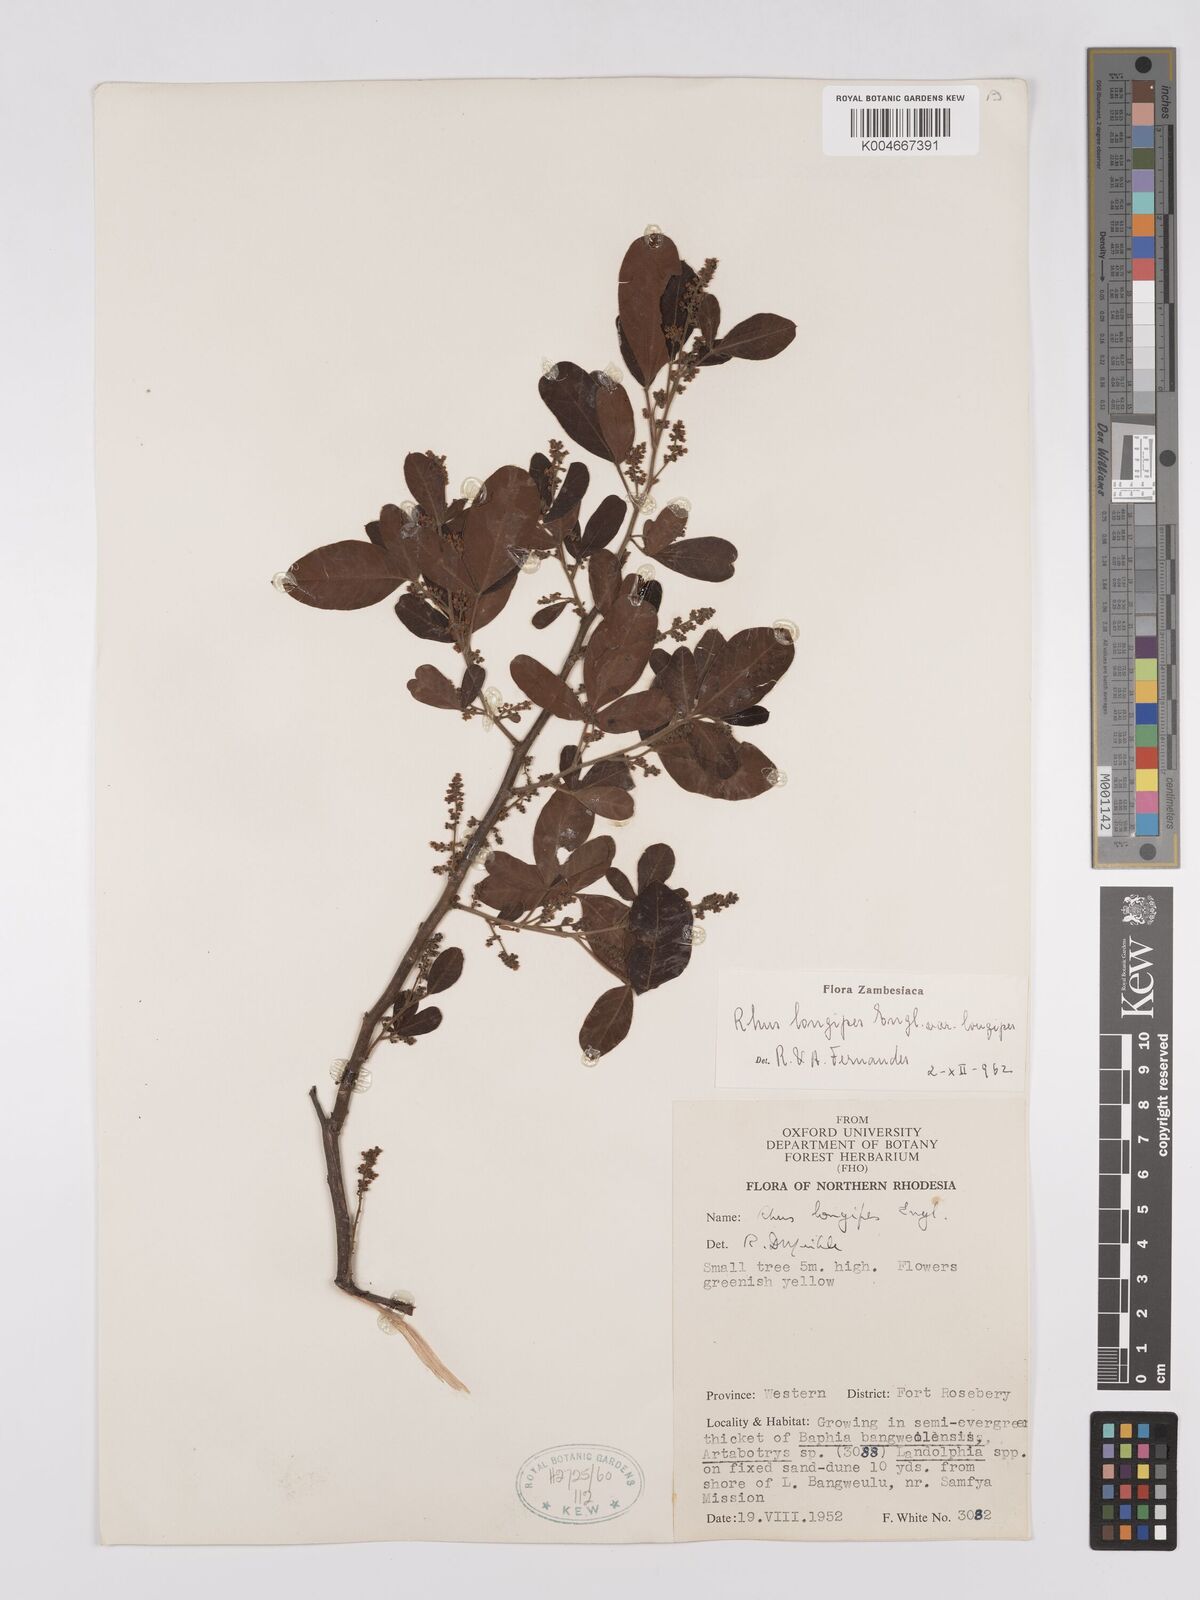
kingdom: Plantae
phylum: Tracheophyta
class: Magnoliopsida
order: Sapindales
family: Anacardiaceae
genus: Searsia
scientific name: Searsia longipes
